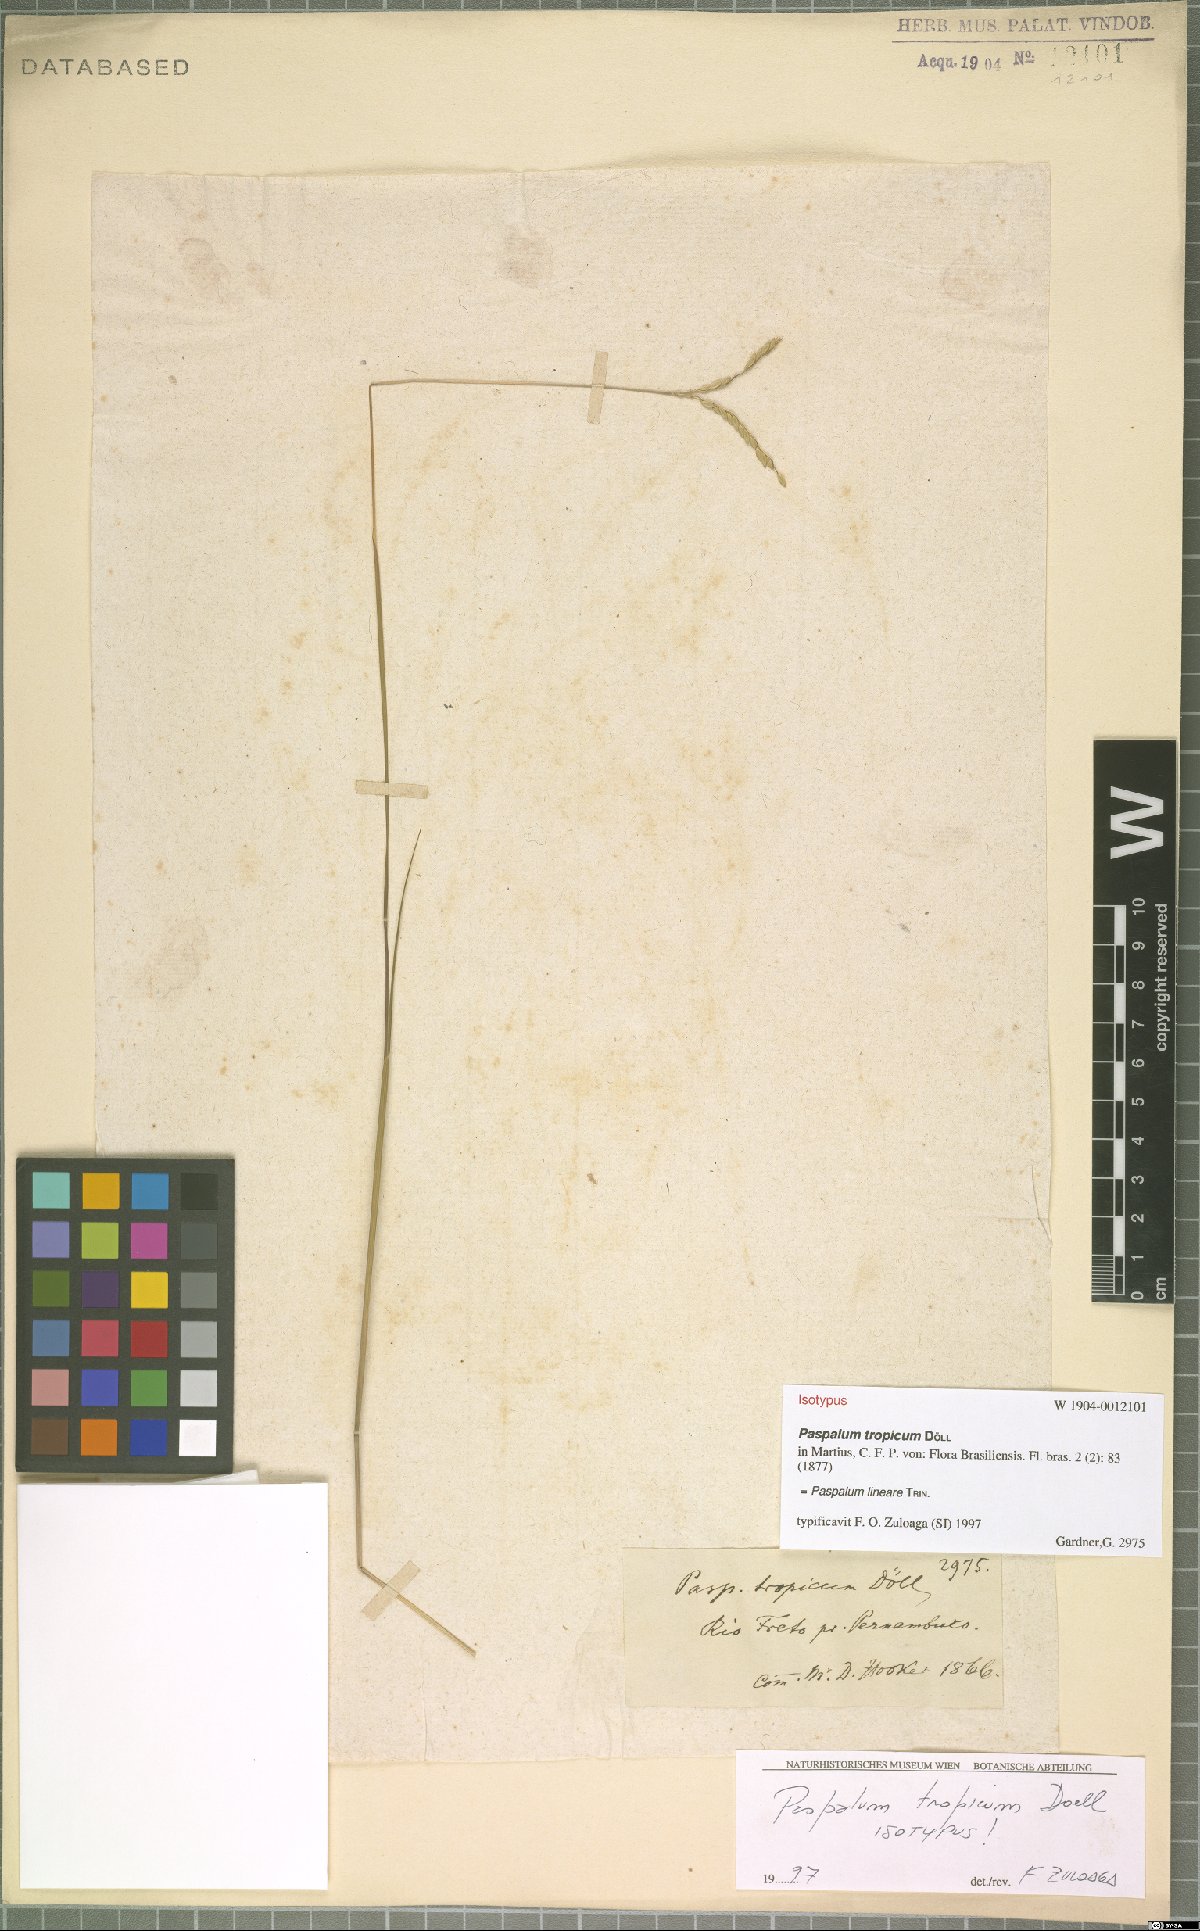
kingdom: Plantae
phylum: Tracheophyta
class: Liliopsida
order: Poales
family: Poaceae
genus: Paspalum
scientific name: Paspalum lineare
